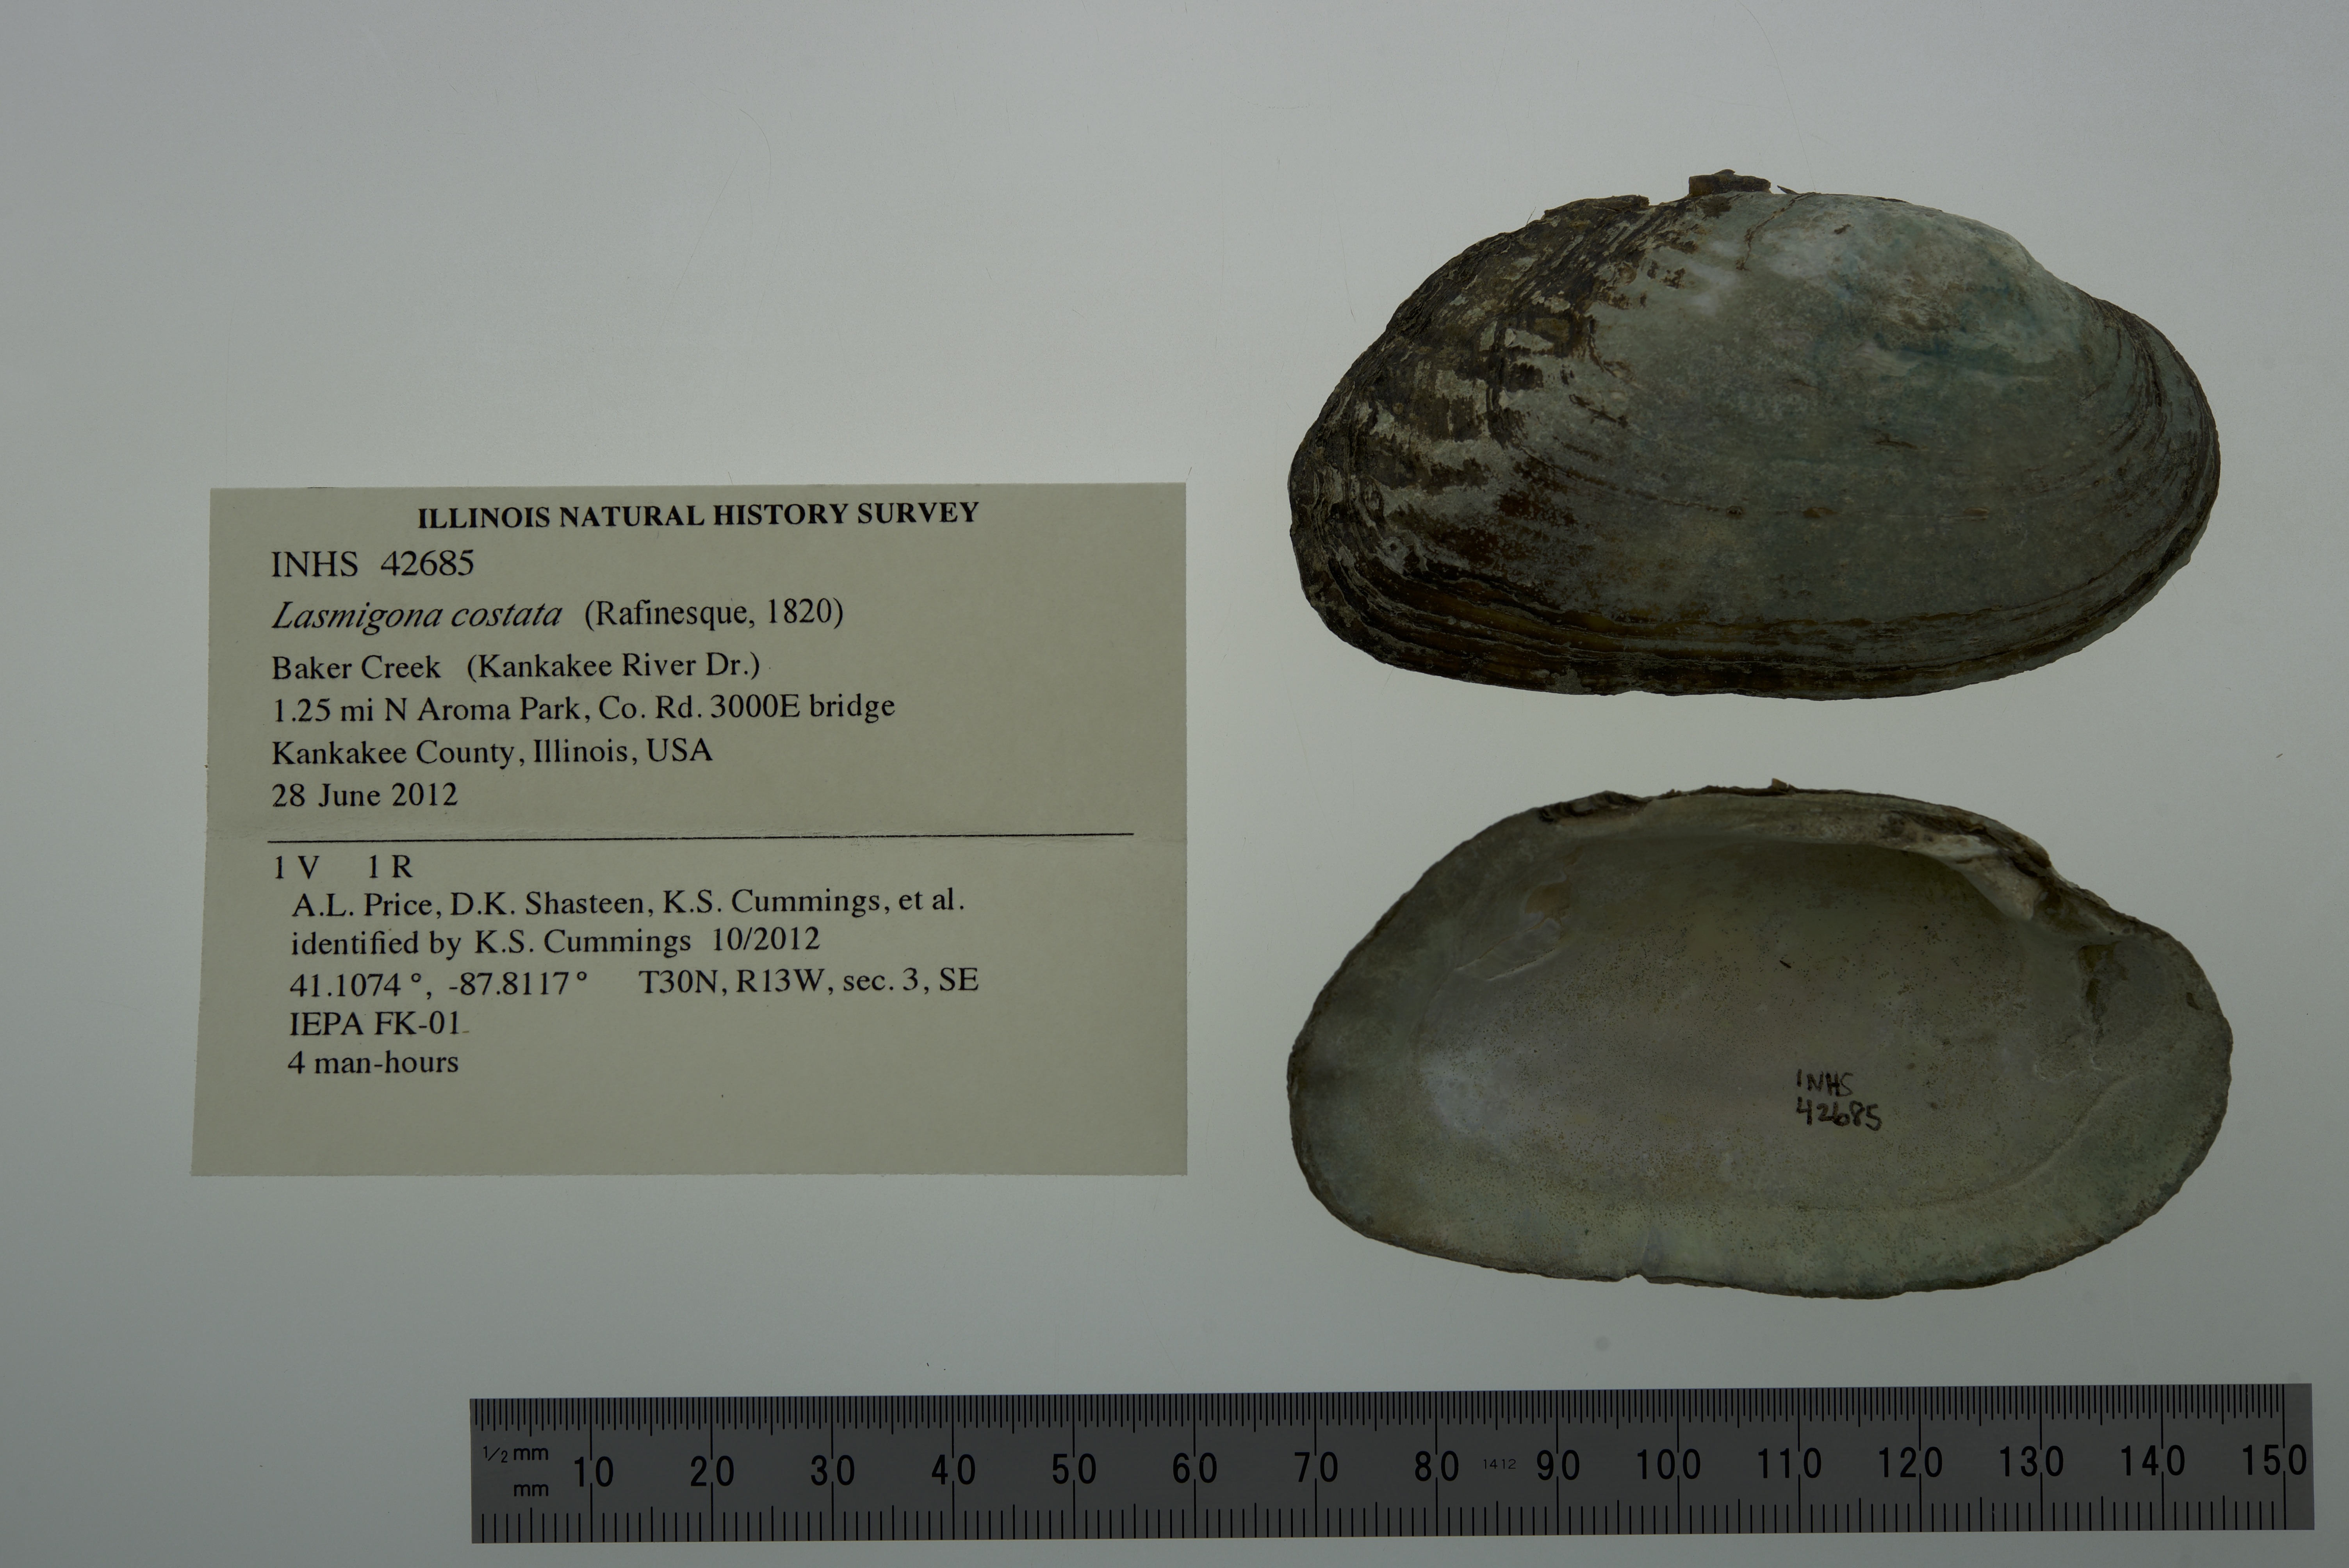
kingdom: Animalia
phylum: Mollusca
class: Bivalvia
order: Unionida
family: Unionidae
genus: Lasmigona
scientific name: Lasmigona costata
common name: Flutedshell
